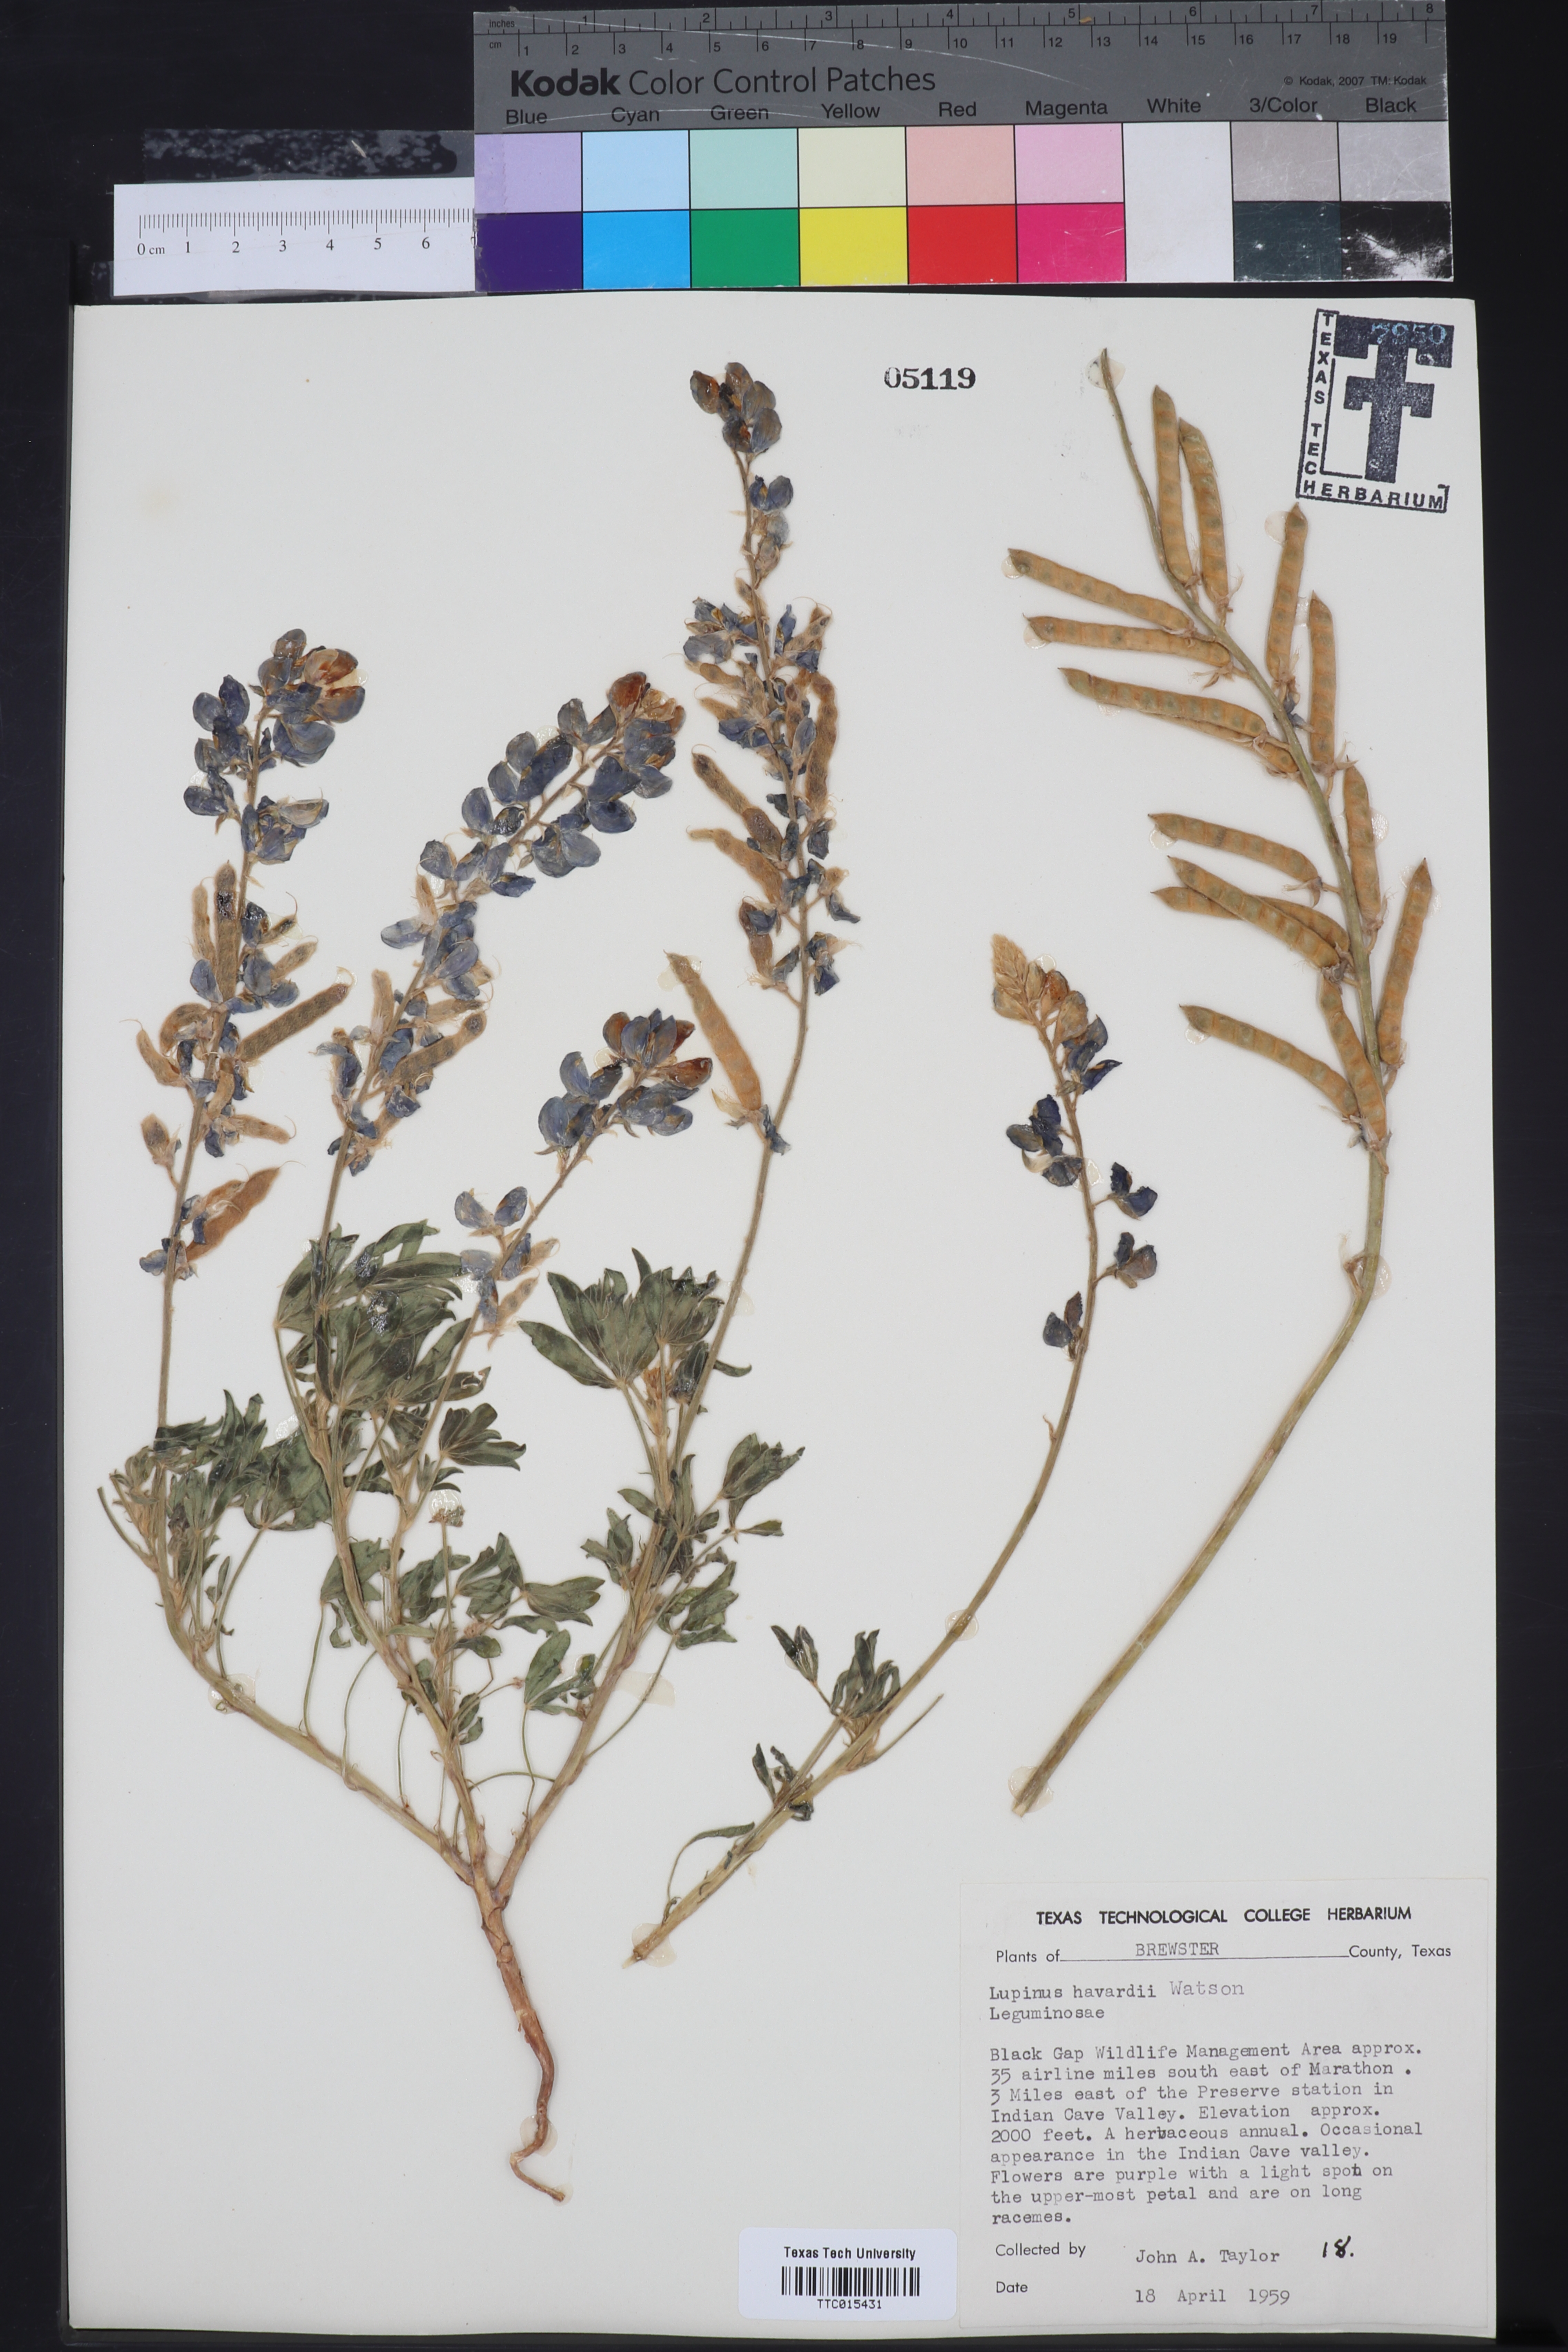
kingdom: Plantae
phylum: Tracheophyta
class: Magnoliopsida
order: Fabales
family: Fabaceae
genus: Lupinus
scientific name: Lupinus havardii
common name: Chisos bluebonnet
